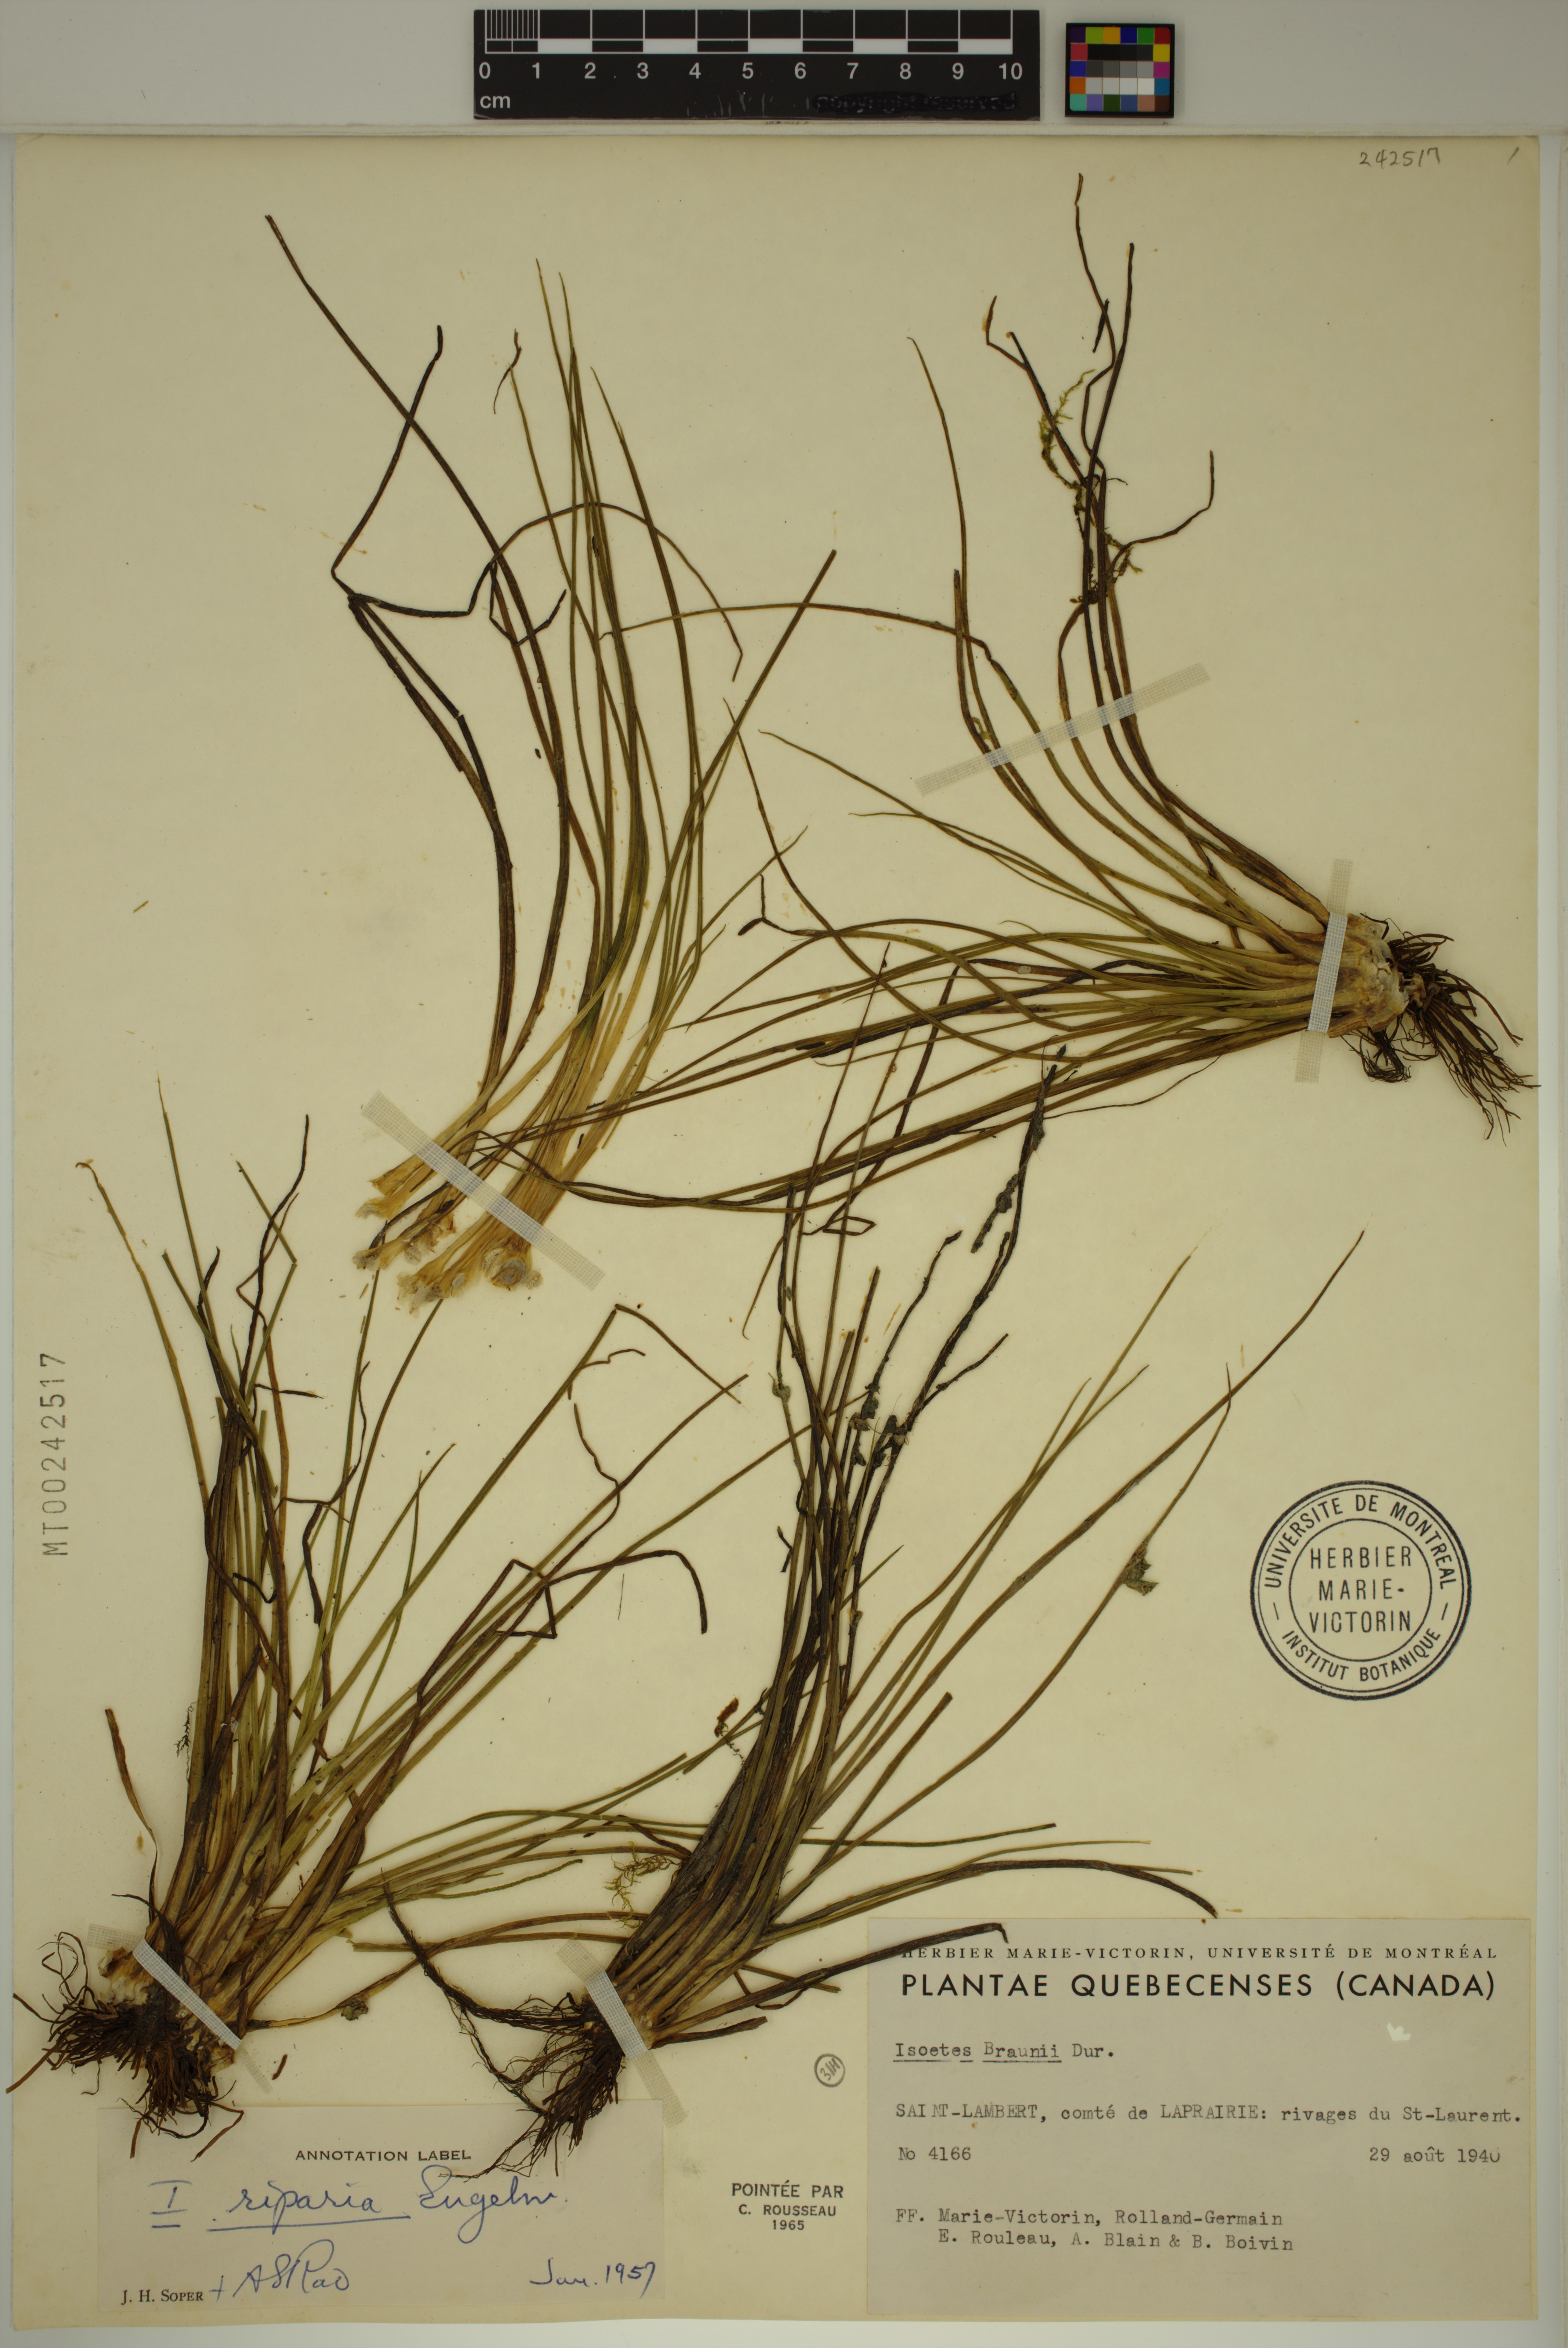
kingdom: Plantae
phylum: Tracheophyta
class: Lycopodiopsida
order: Isoetales
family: Isoetaceae
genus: Isoetes
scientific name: Isoetes septentrionalis
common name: Northern quillwort
